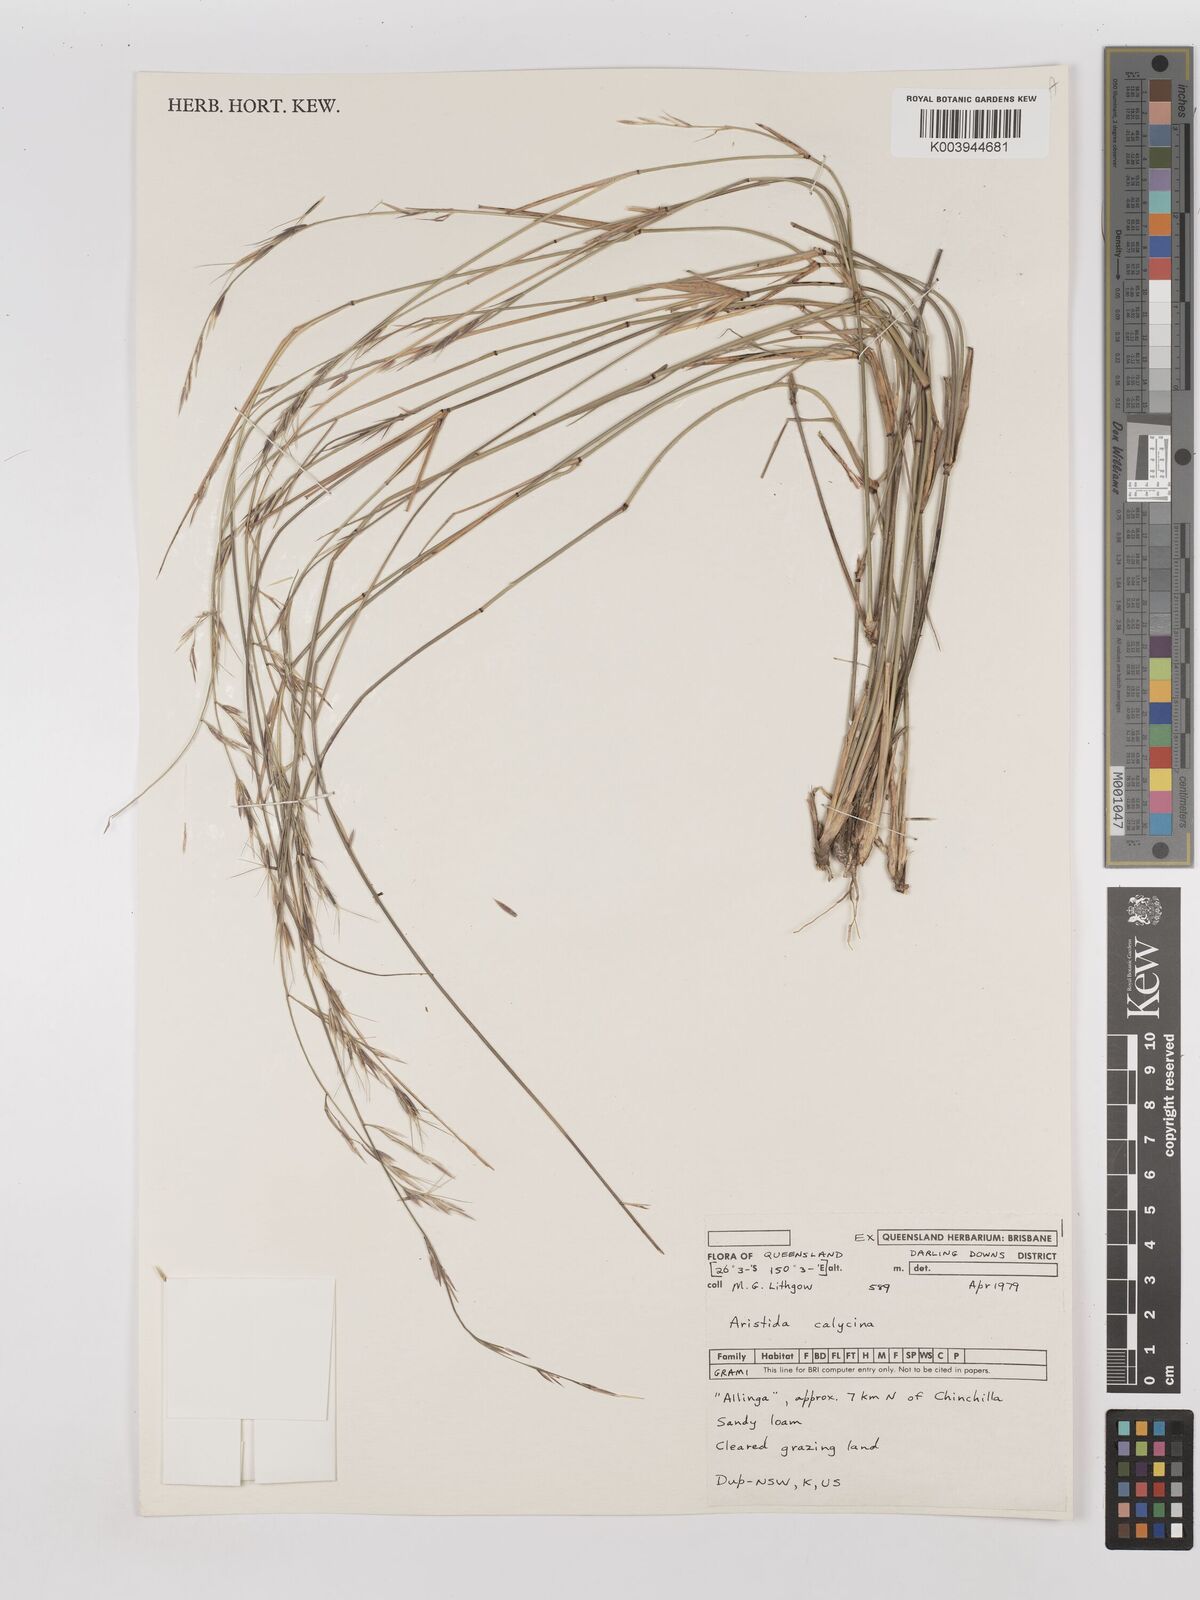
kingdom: Plantae
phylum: Tracheophyta
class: Liliopsida
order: Poales
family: Poaceae
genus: Aristida
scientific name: Aristida calycina
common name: Dark wire grass
